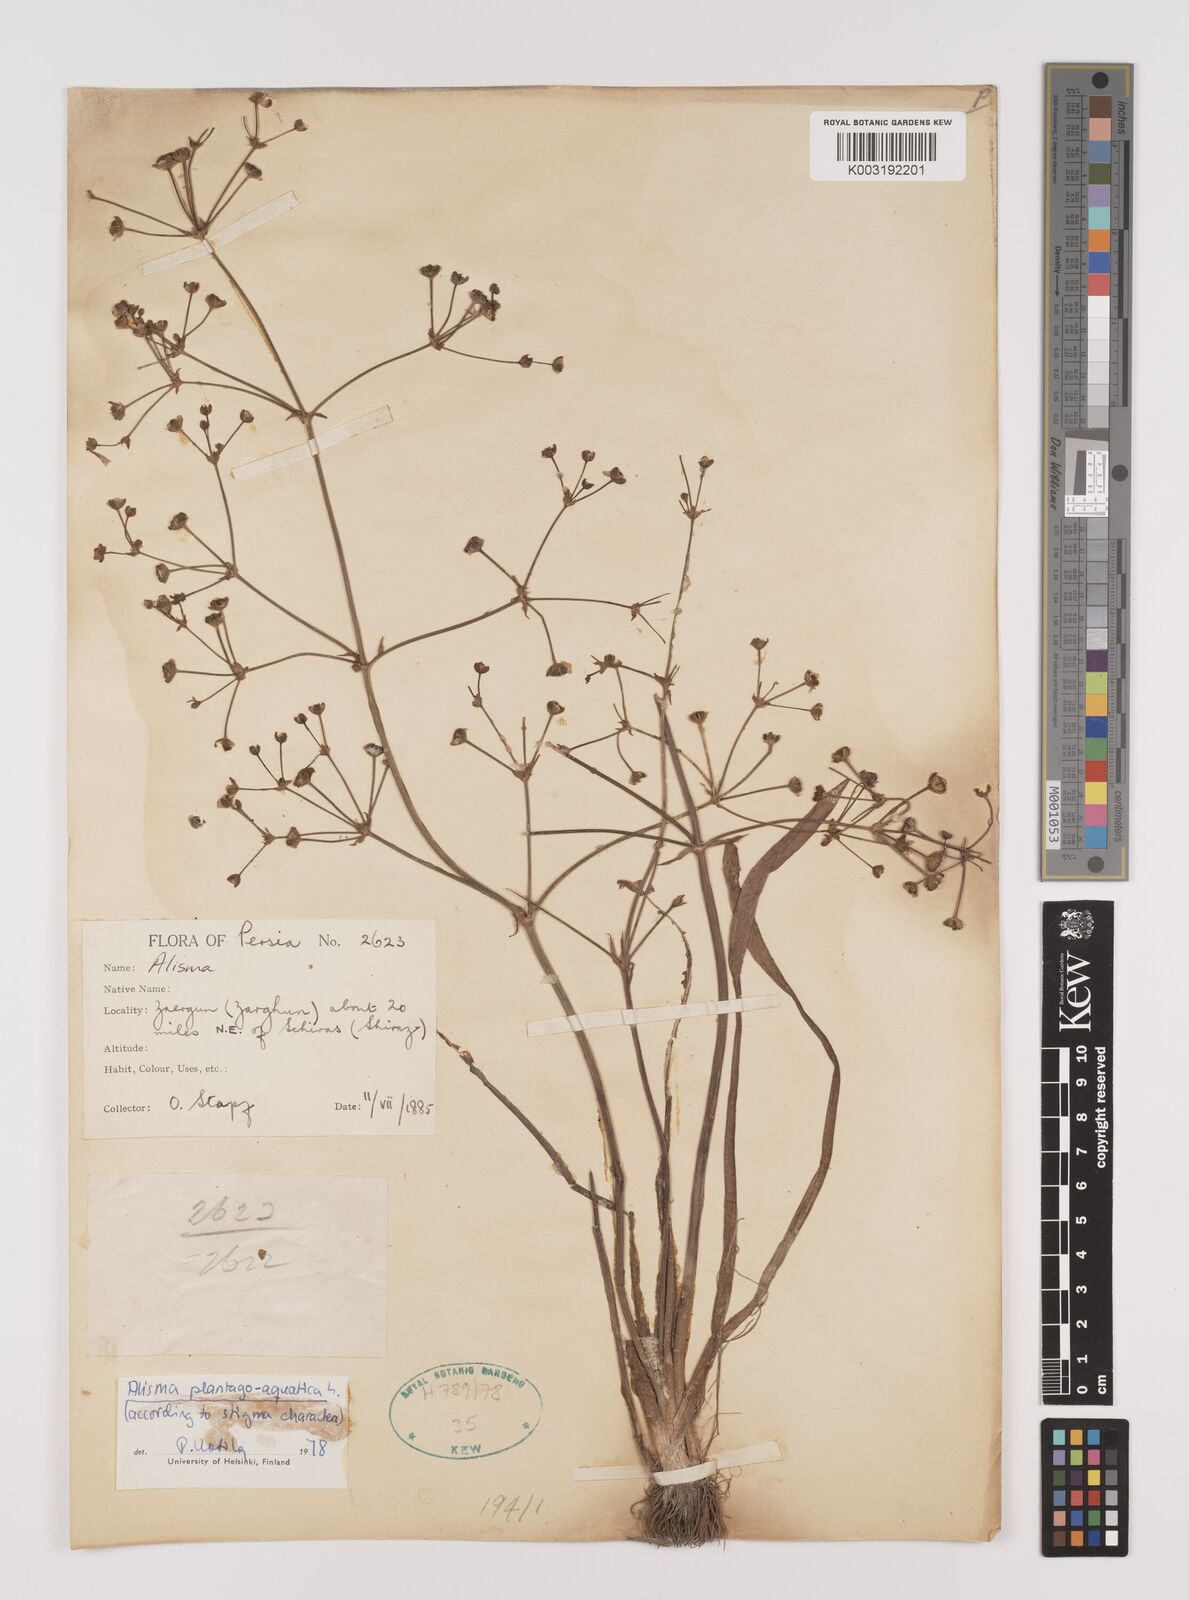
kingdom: Plantae
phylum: Tracheophyta
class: Liliopsida
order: Alismatales
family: Alismataceae
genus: Alisma
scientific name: Alisma plantago-aquatica
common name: Water-plantain
